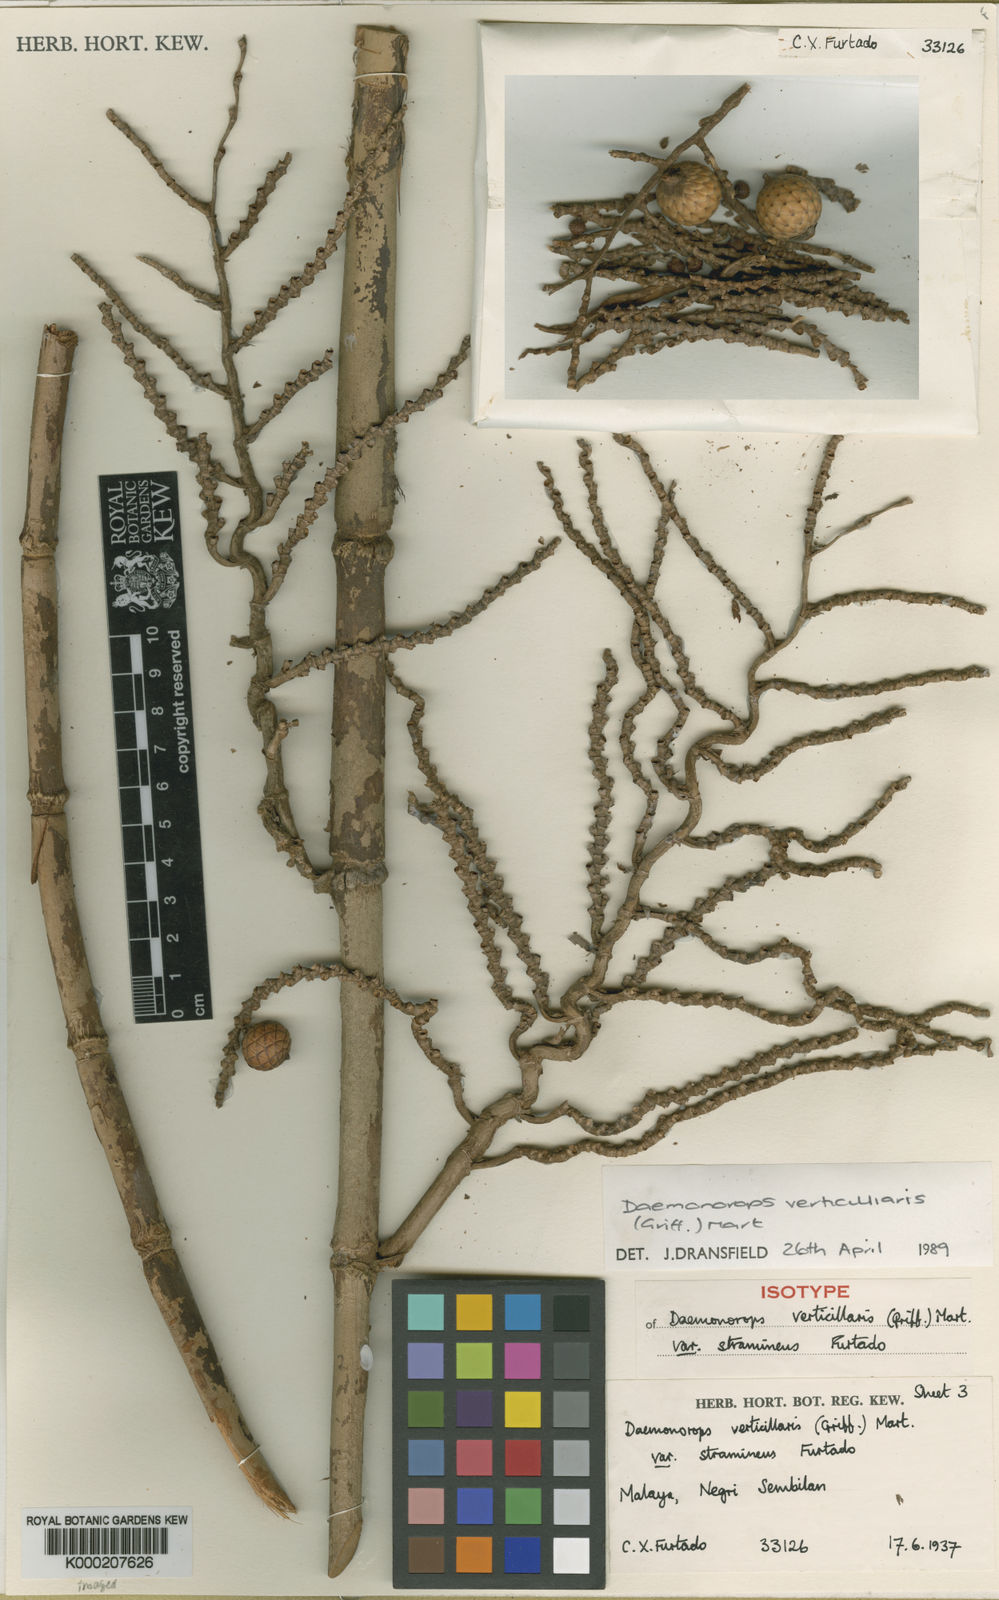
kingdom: Plantae
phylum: Tracheophyta
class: Liliopsida
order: Arecales
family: Arecaceae
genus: Calamus
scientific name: Calamus verticillaris
